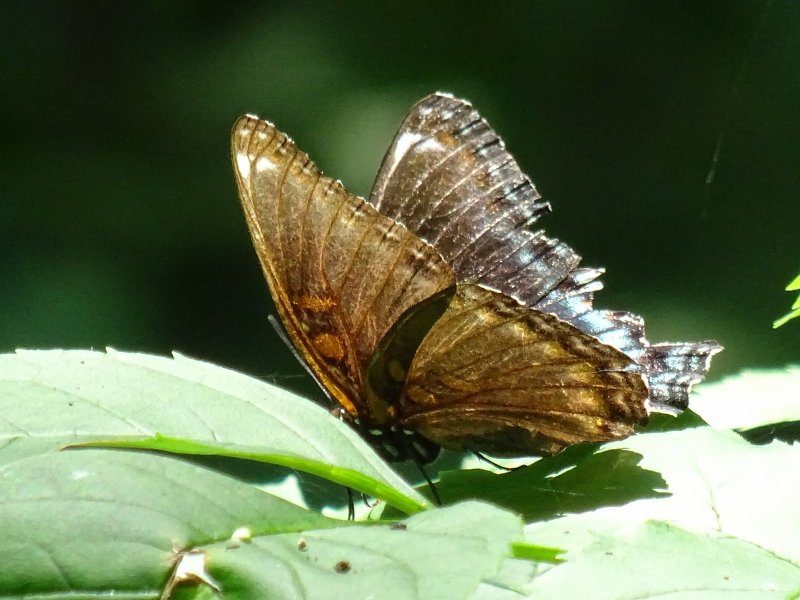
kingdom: Animalia
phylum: Arthropoda
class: Insecta
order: Lepidoptera
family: Nymphalidae
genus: Limenitis
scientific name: Limenitis astyanax
